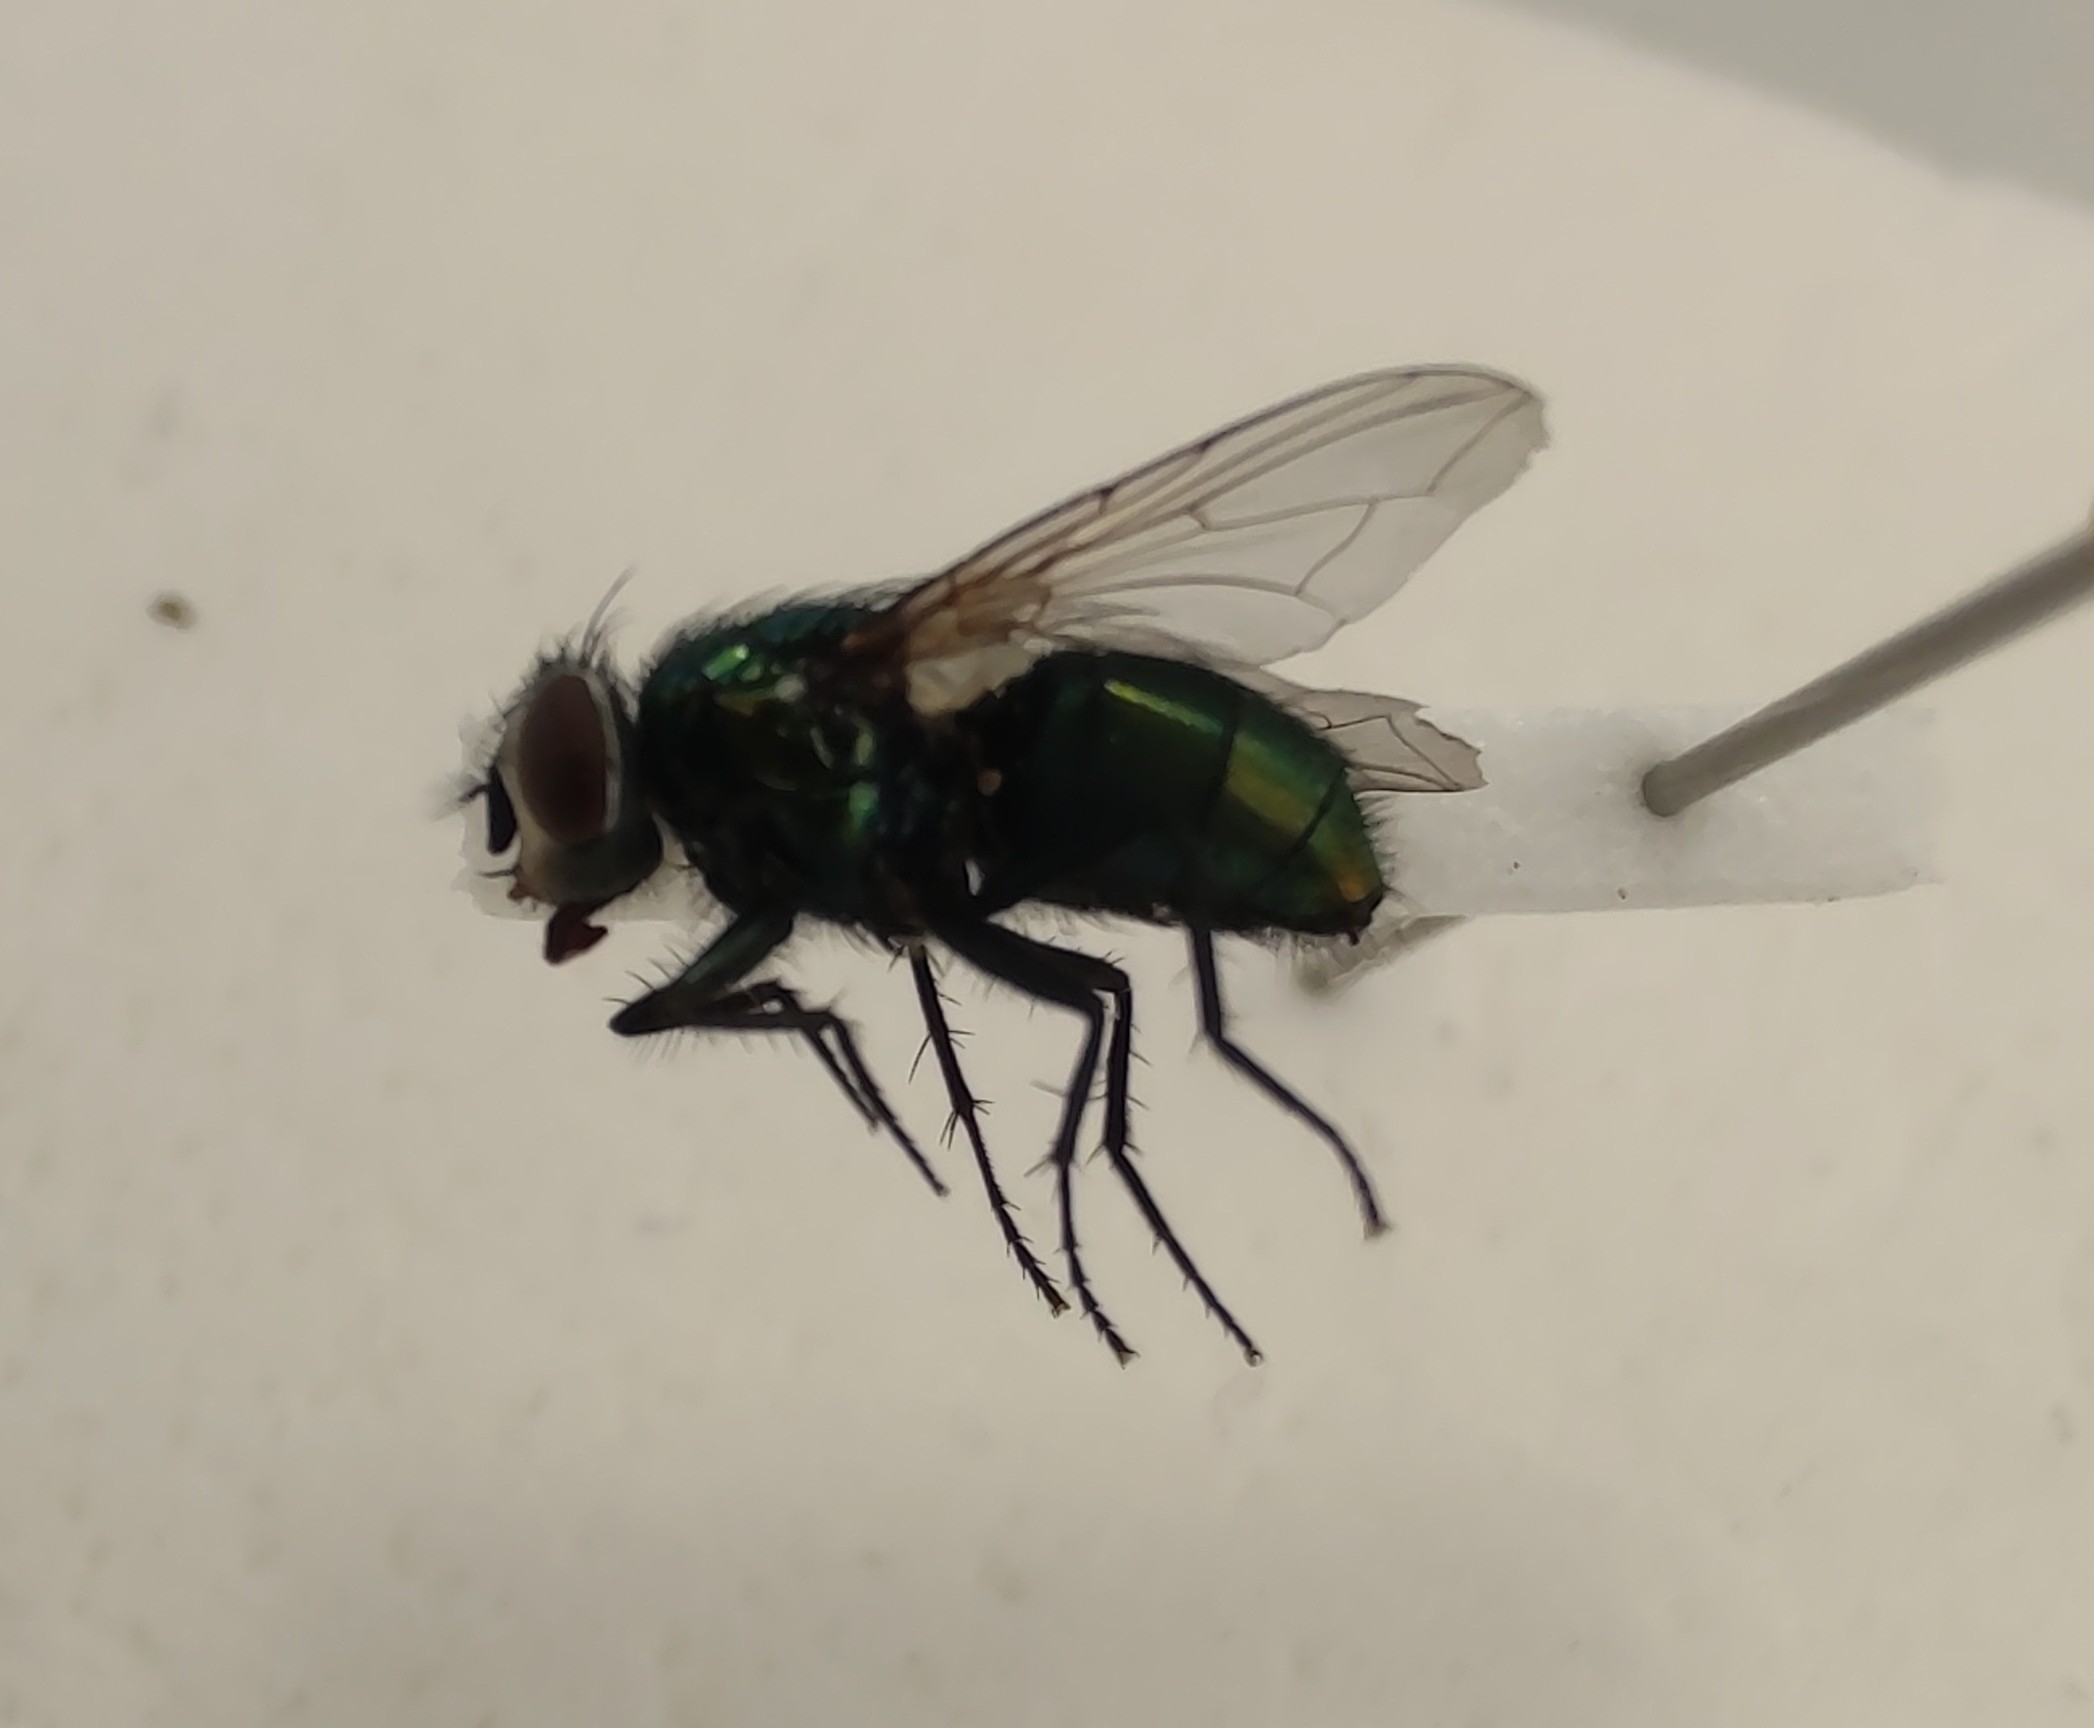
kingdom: Animalia
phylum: Arthropoda
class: Insecta
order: Diptera
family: Calliphoridae
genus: Lucilia
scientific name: Lucilia sericata
